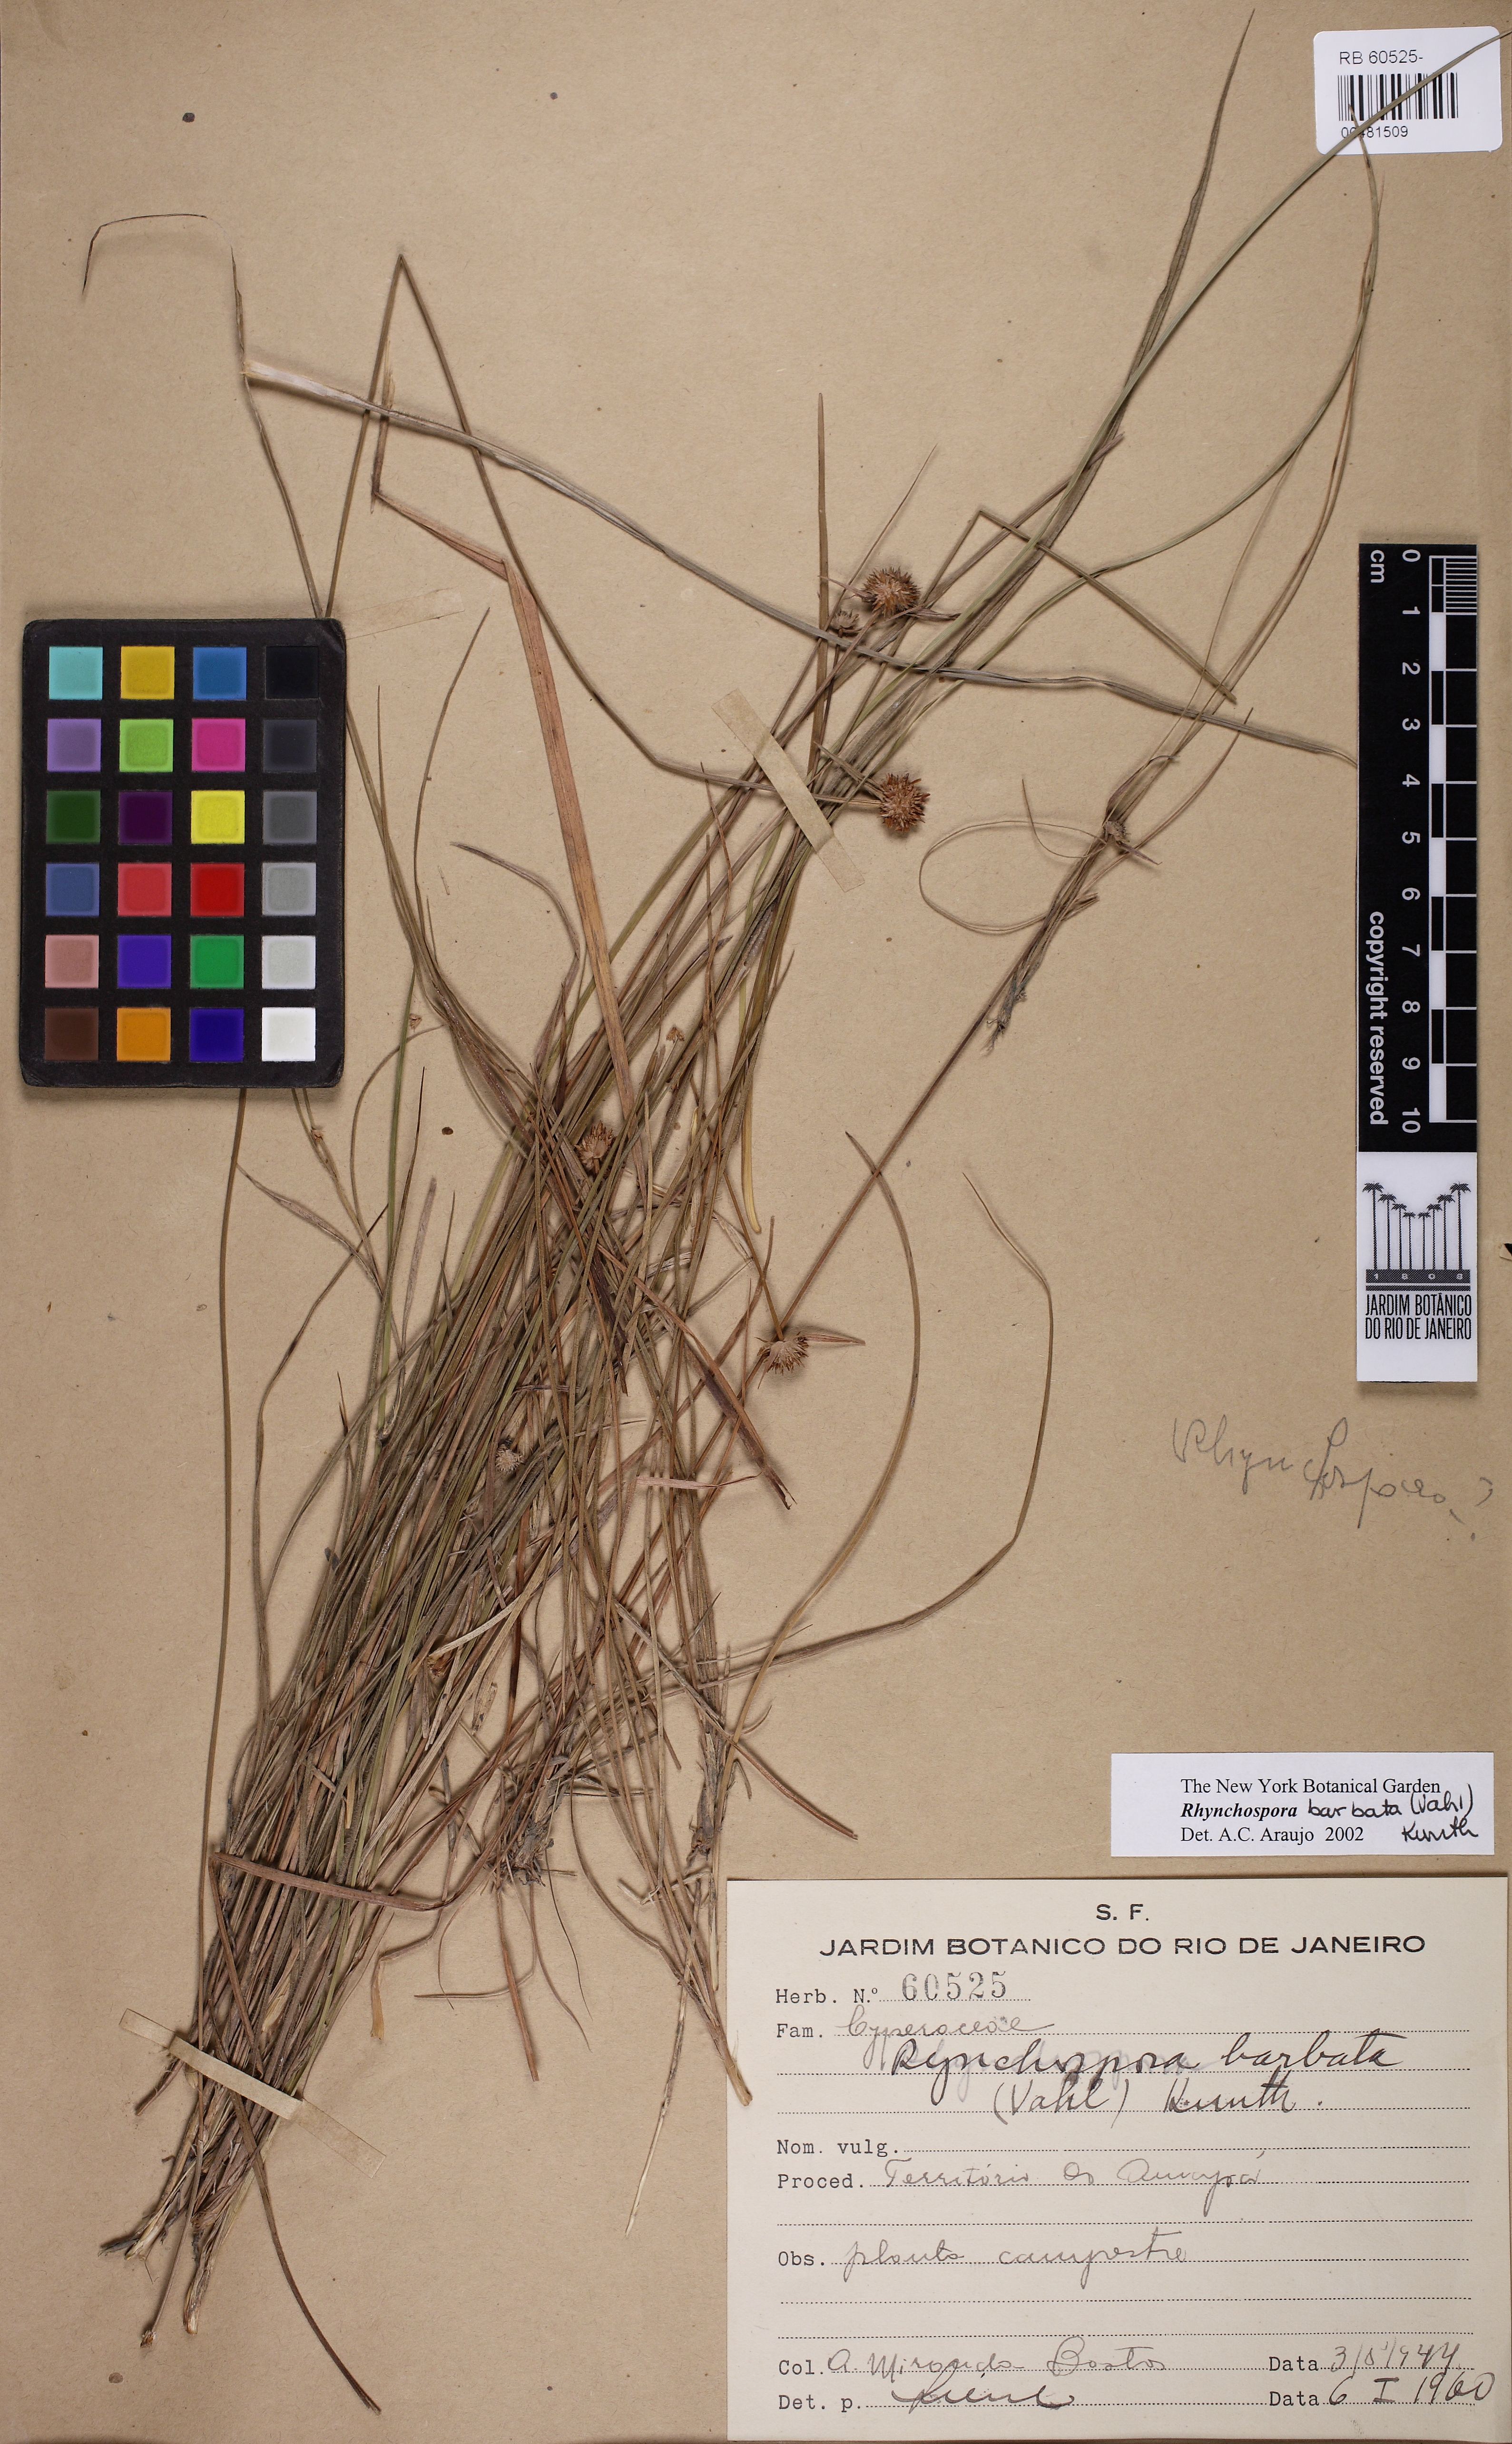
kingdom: Plantae
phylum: Tracheophyta
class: Liliopsida
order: Poales
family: Cyperaceae
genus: Rhynchospora
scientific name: Rhynchospora barbata
